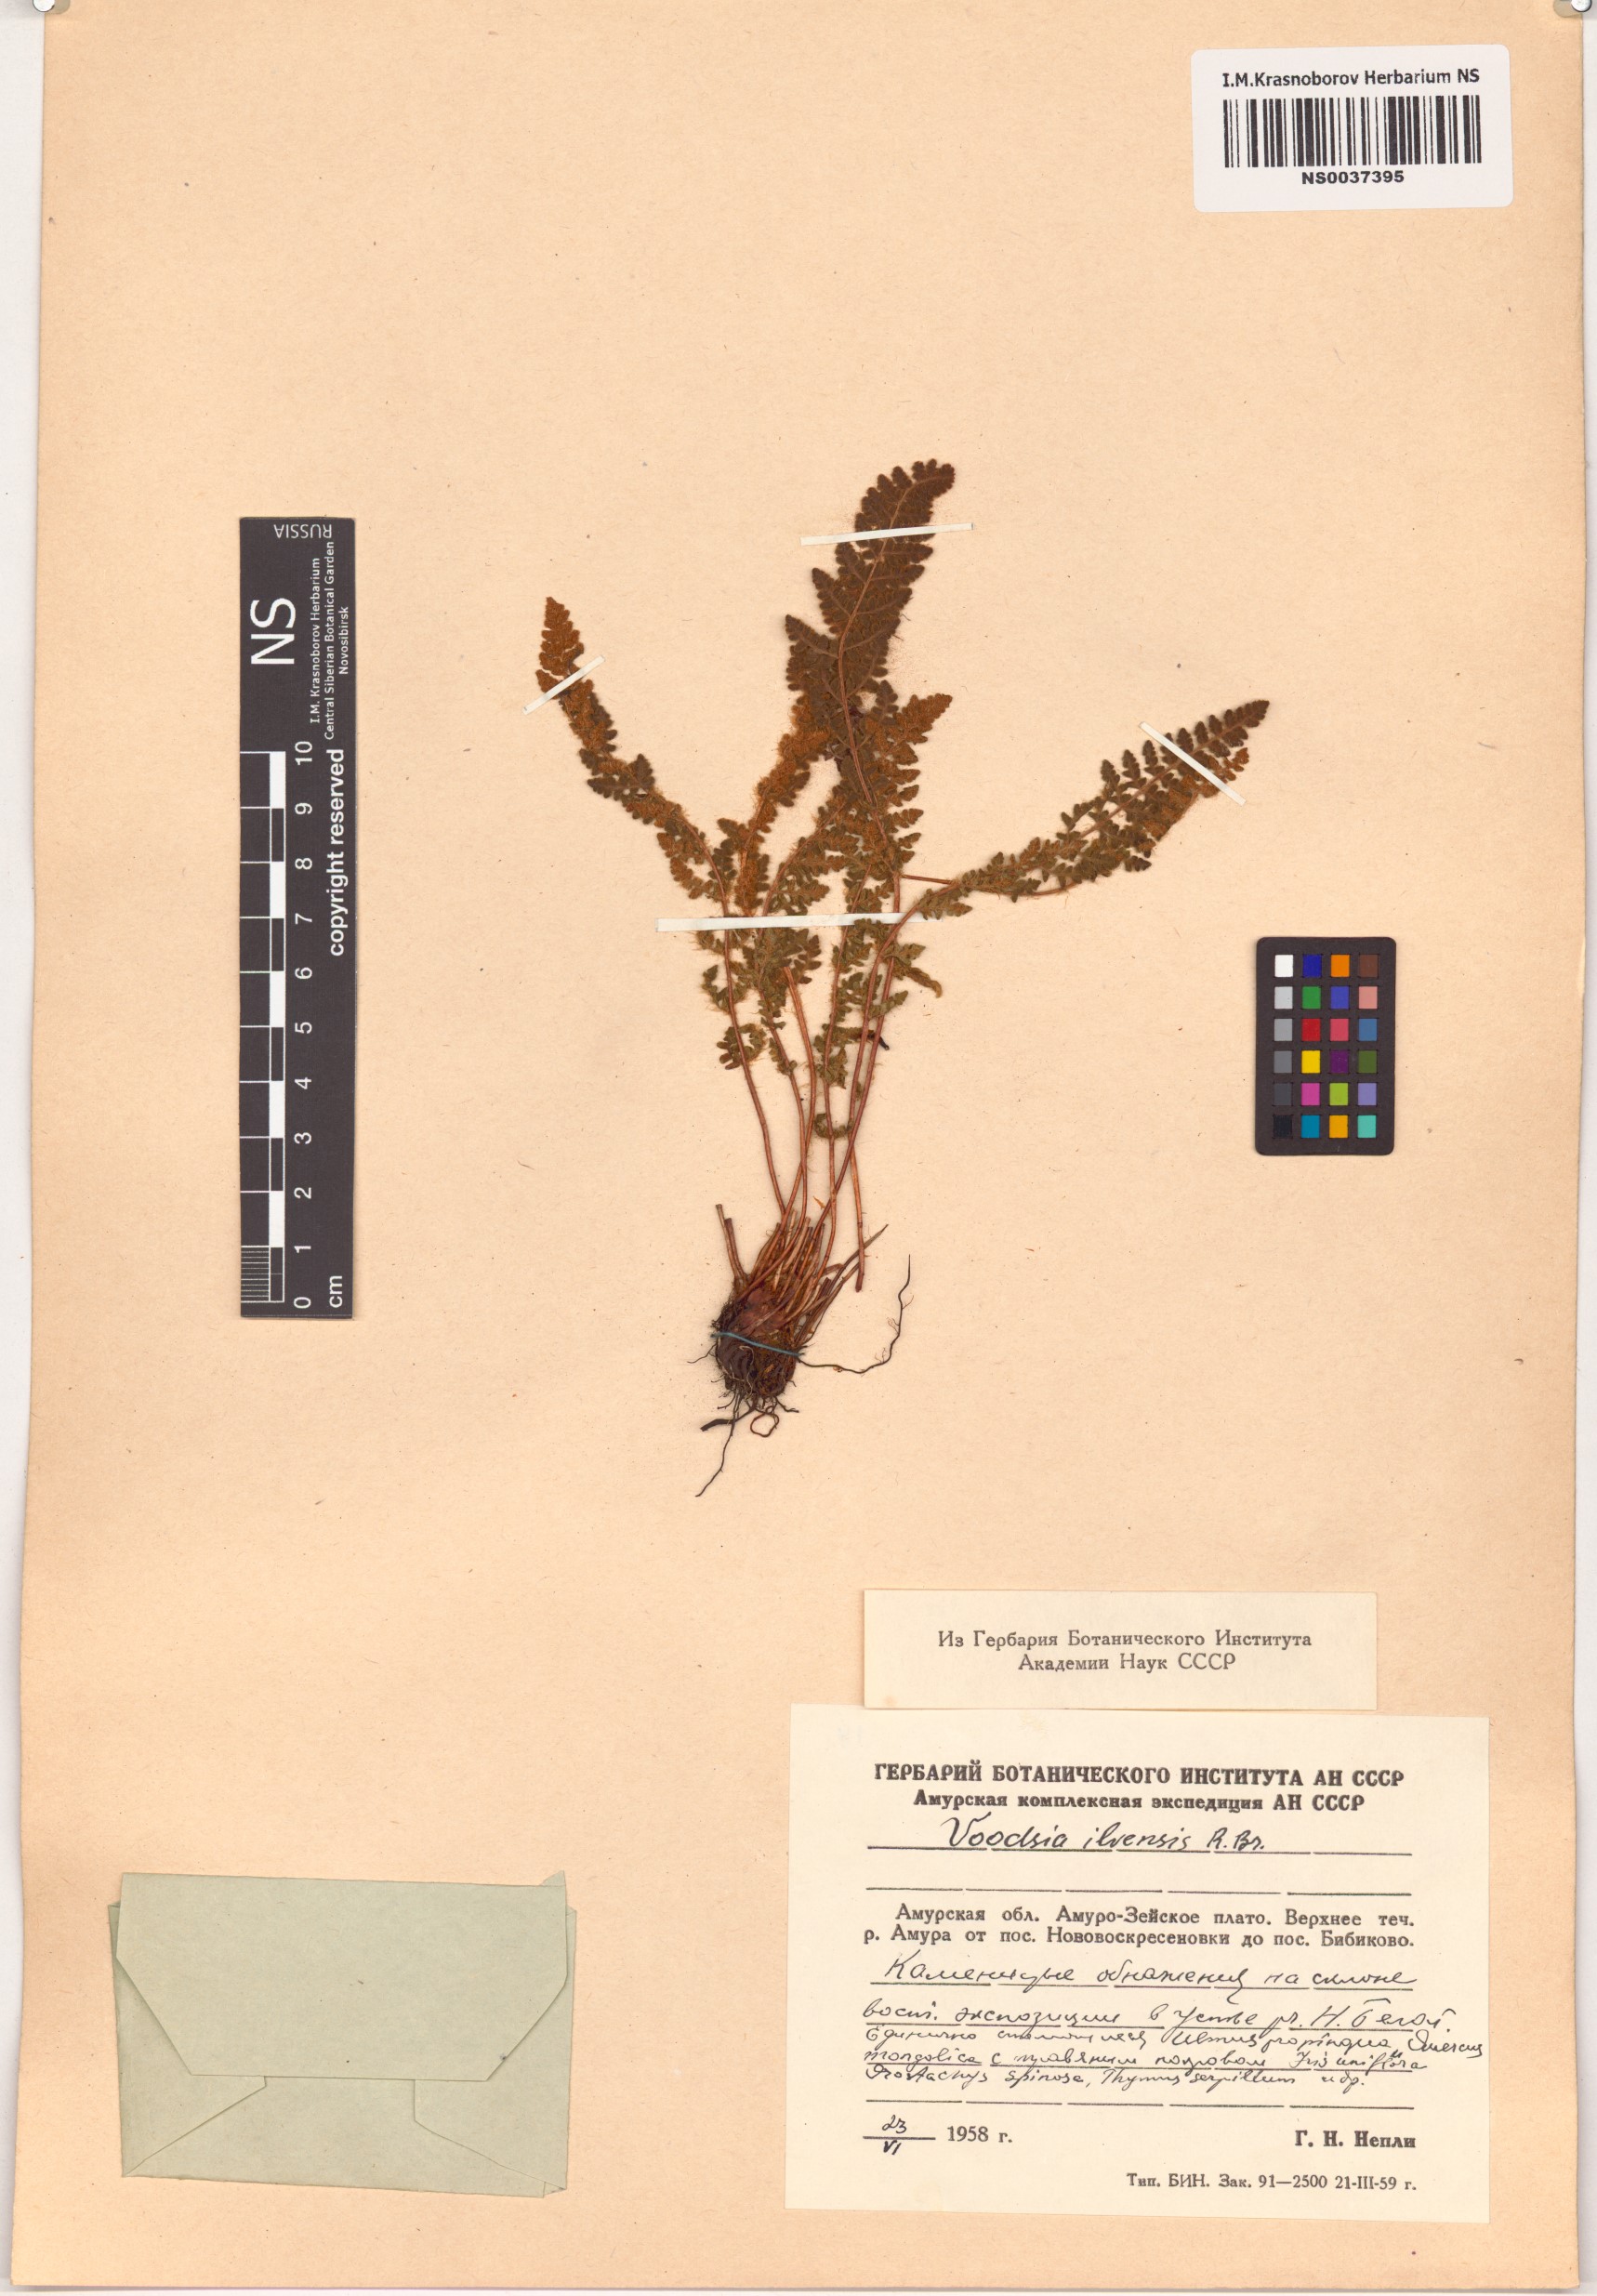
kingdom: Plantae
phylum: Tracheophyta
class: Polypodiopsida
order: Polypodiales
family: Woodsiaceae
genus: Woodsia
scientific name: Woodsia ilvensis
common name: Fragrant woodsia
